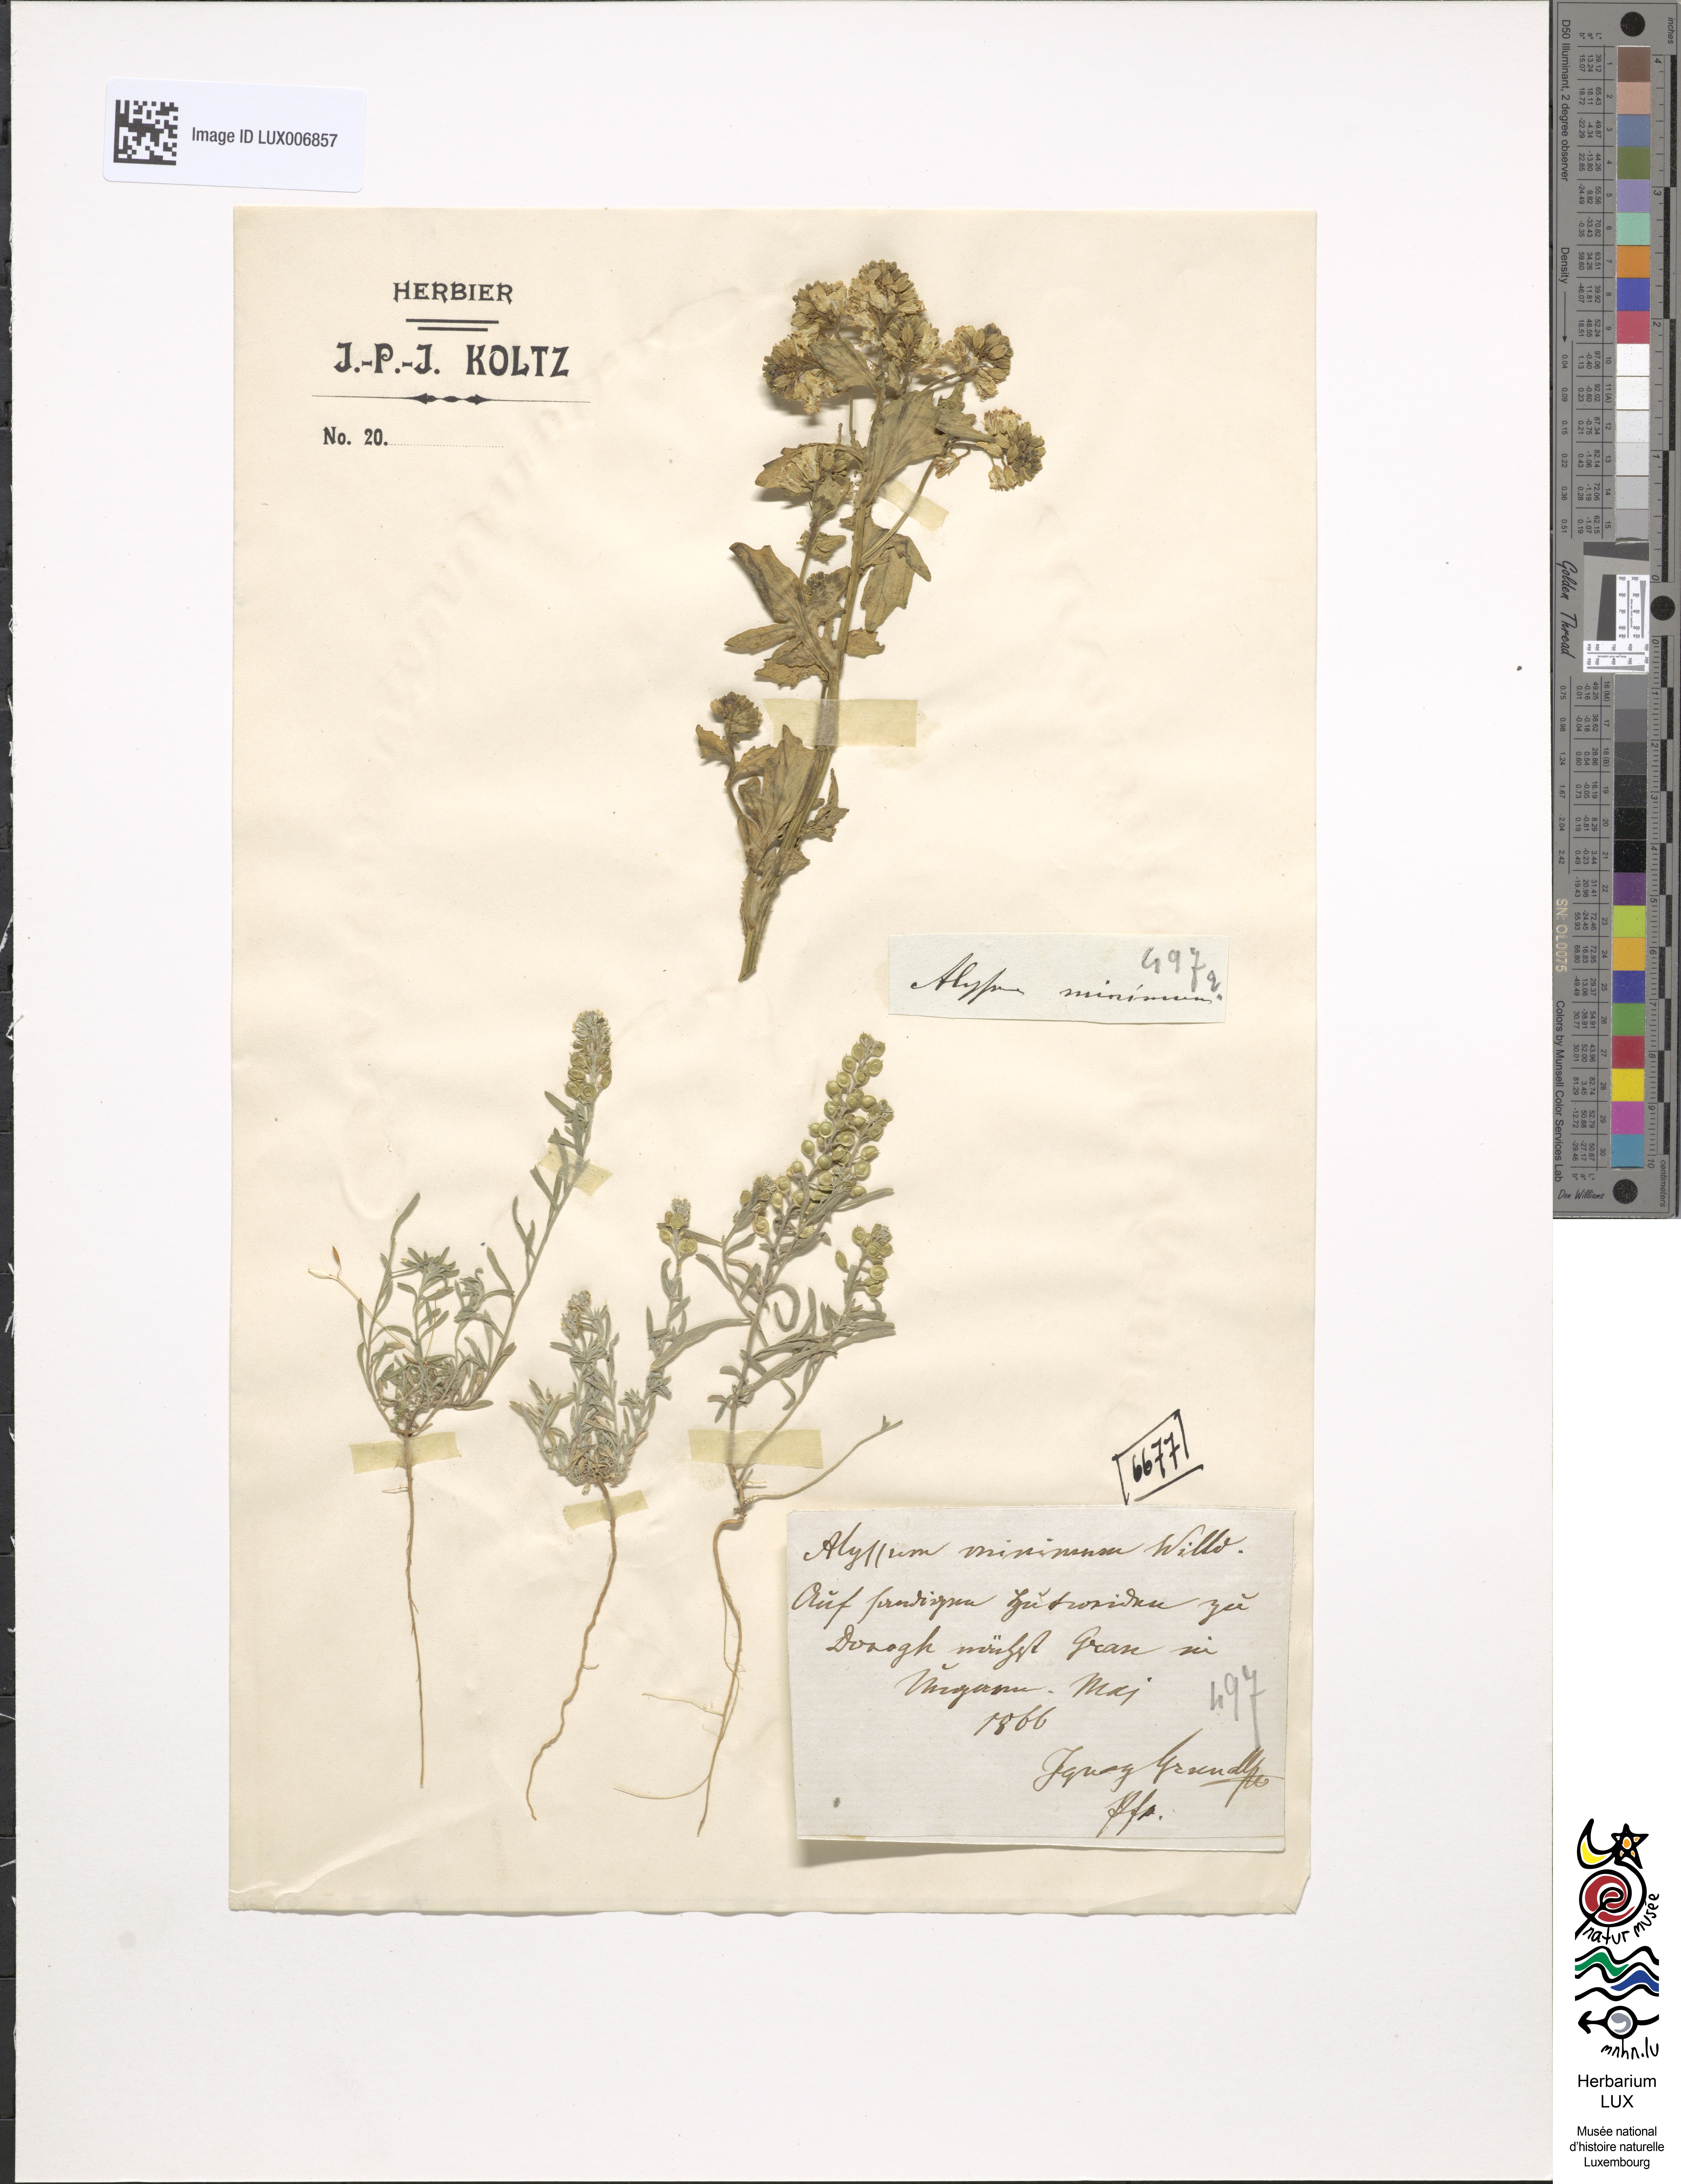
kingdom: Plantae
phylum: Tracheophyta
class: Magnoliopsida
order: Brassicales
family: Brassicaceae
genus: Alyssum
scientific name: Alyssum turkestanicum
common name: Desert alyssum
